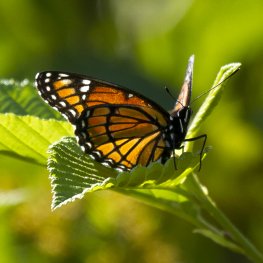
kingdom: Animalia
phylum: Arthropoda
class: Insecta
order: Lepidoptera
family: Nymphalidae
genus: Limenitis
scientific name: Limenitis archippus
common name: Viceroy
